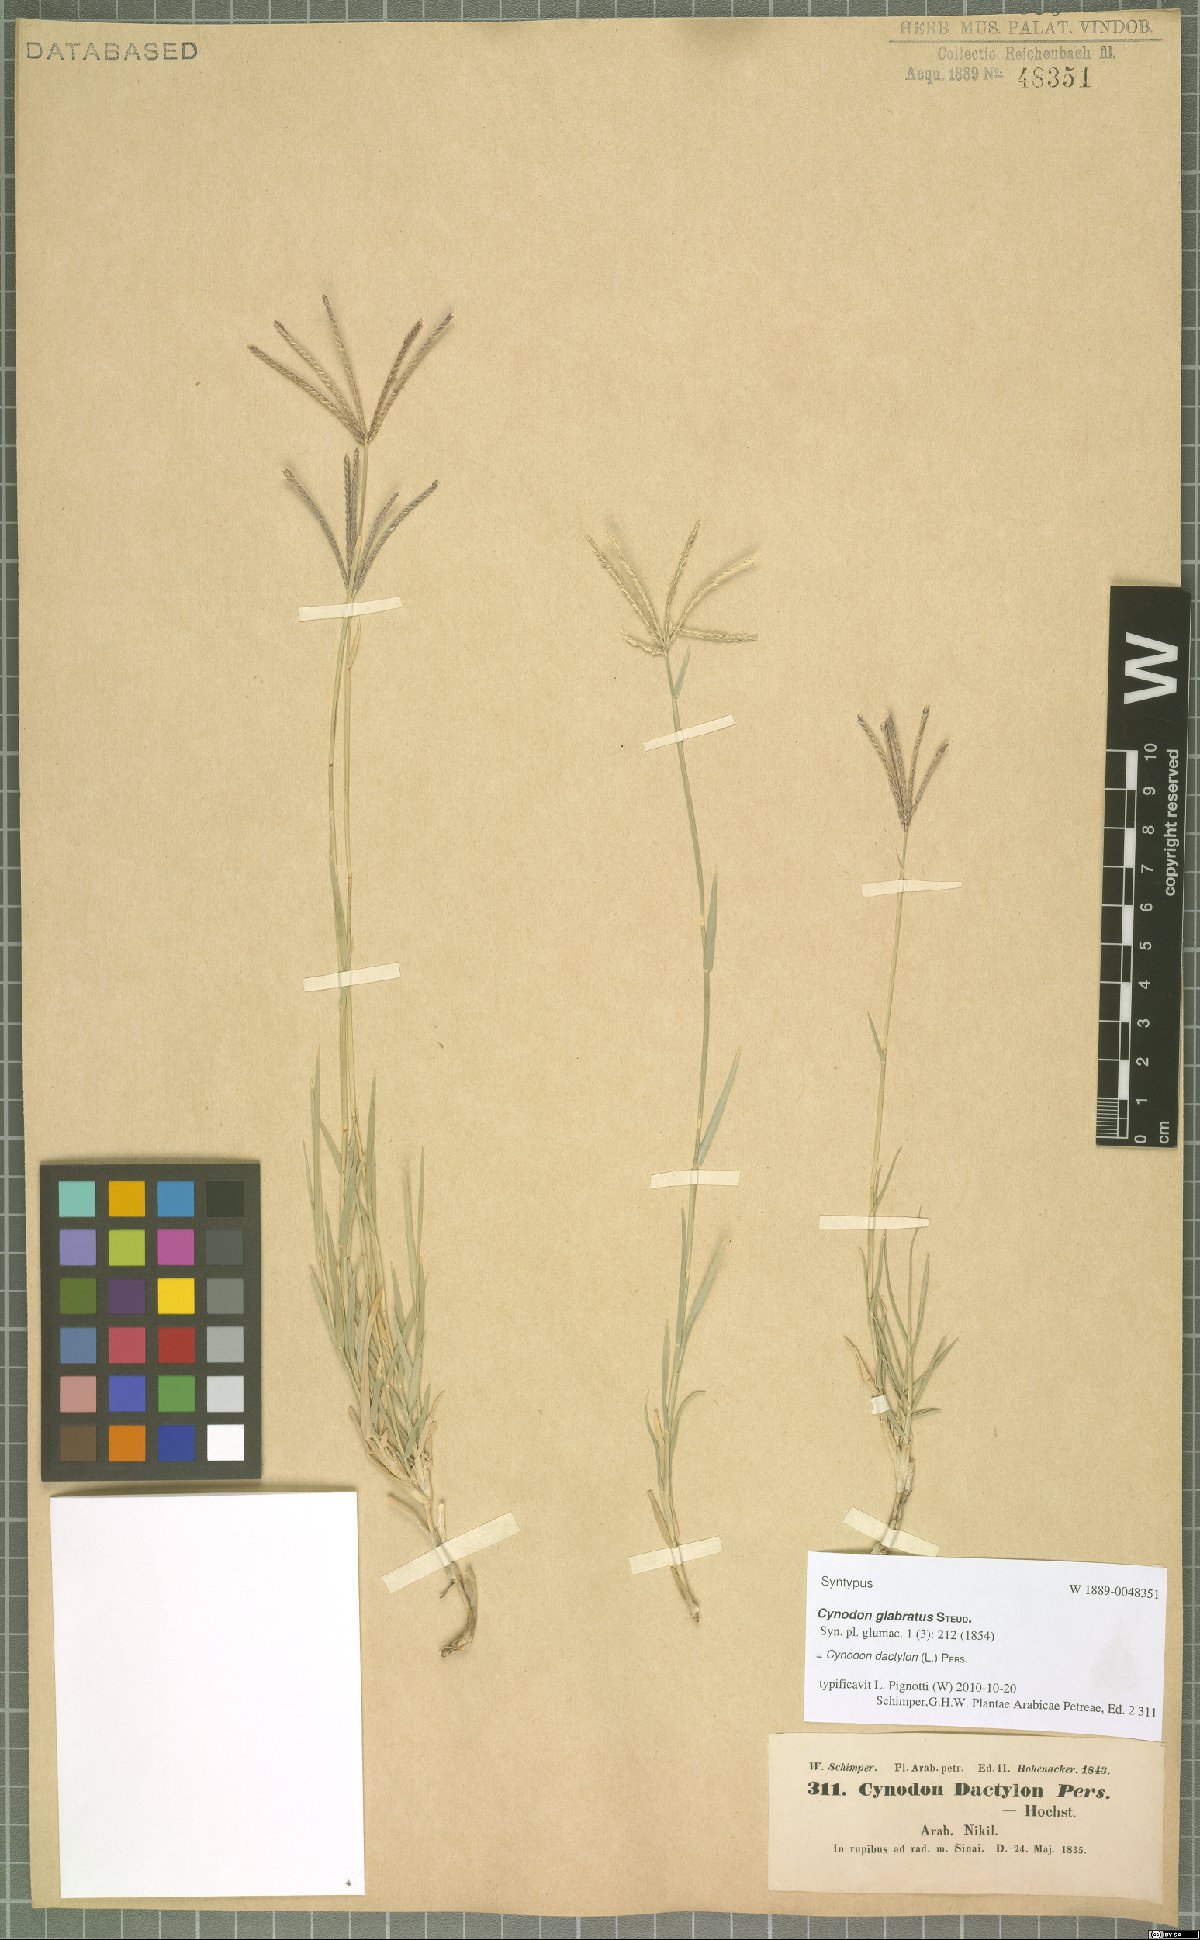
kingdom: Plantae
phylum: Tracheophyta
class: Liliopsida
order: Poales
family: Poaceae
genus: Cynodon
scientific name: Cynodon dactylon
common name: Bermuda grass
